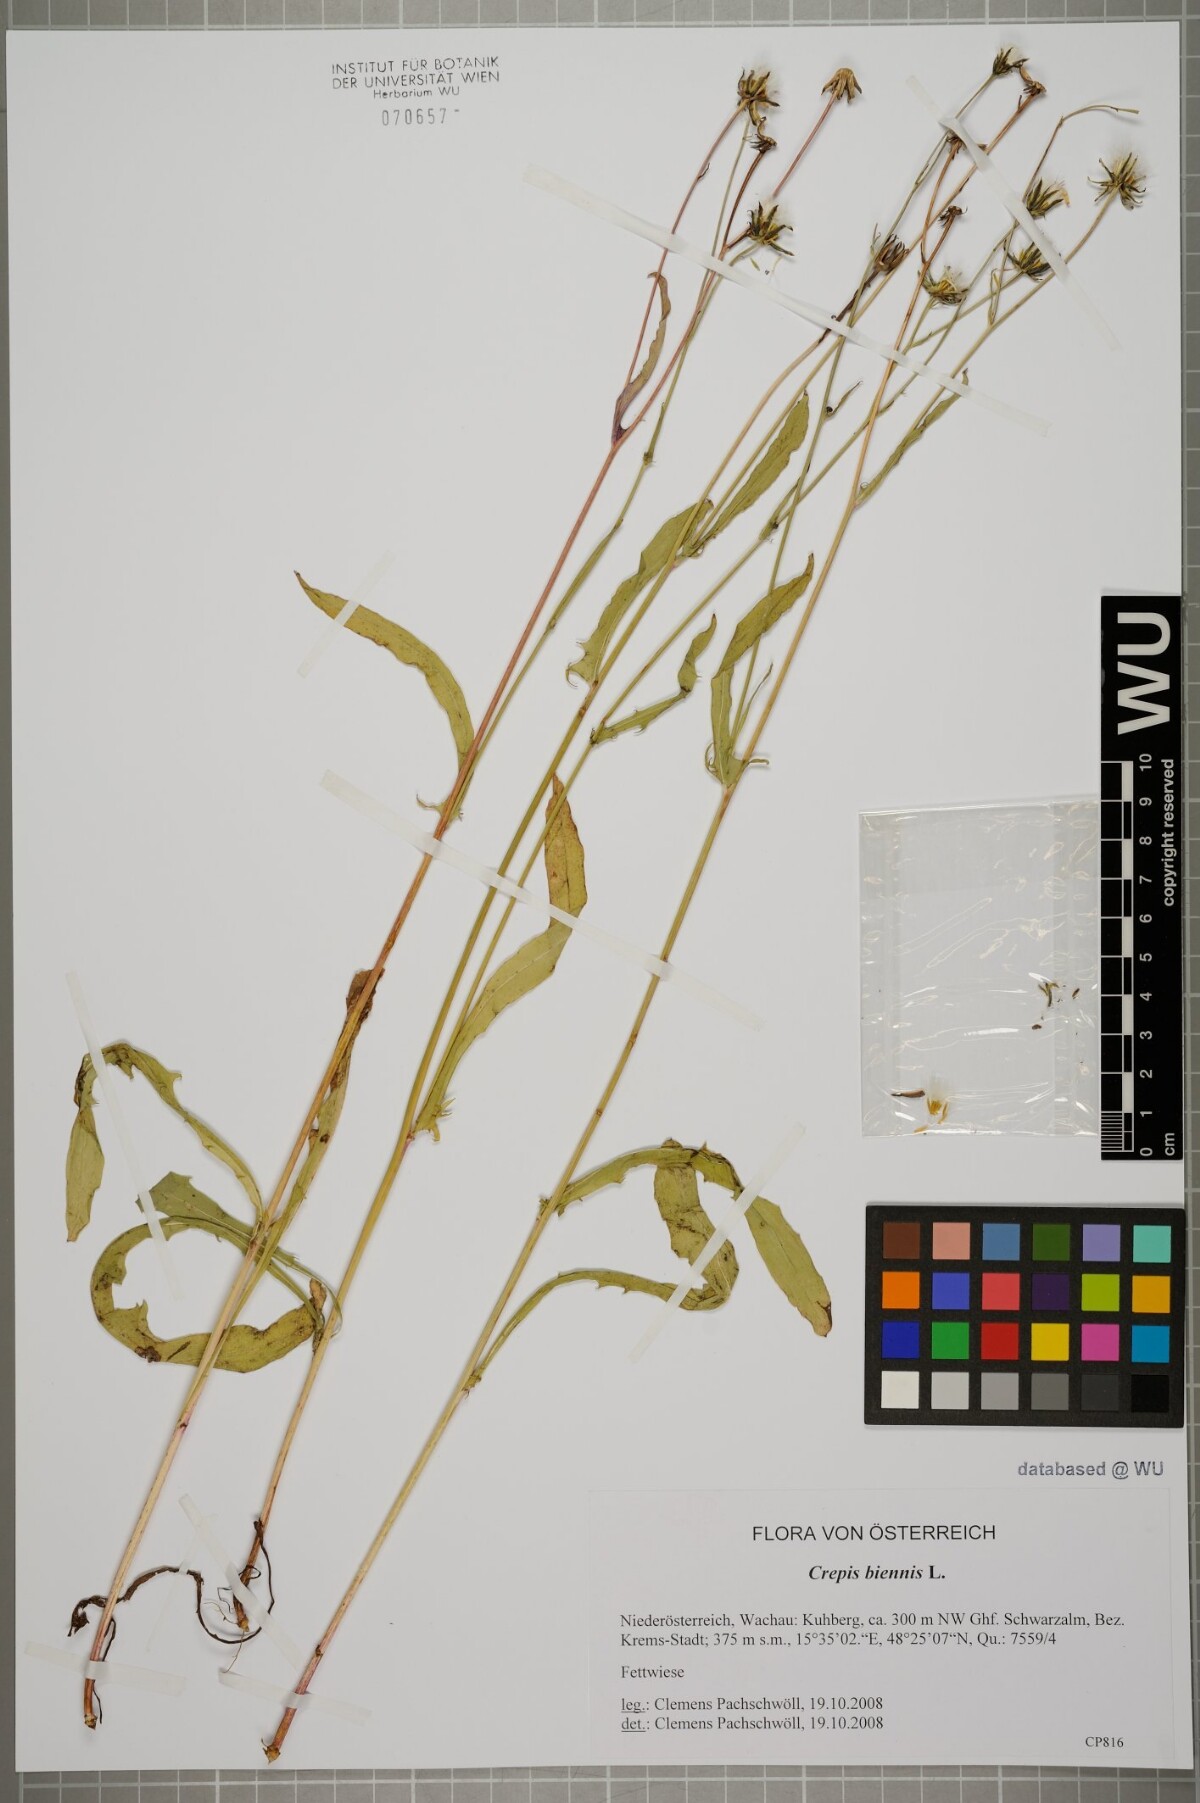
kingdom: Plantae
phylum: Tracheophyta
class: Magnoliopsida
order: Asterales
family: Asteraceae
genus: Crepis
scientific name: Crepis biennis
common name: Rough hawk's-beard
